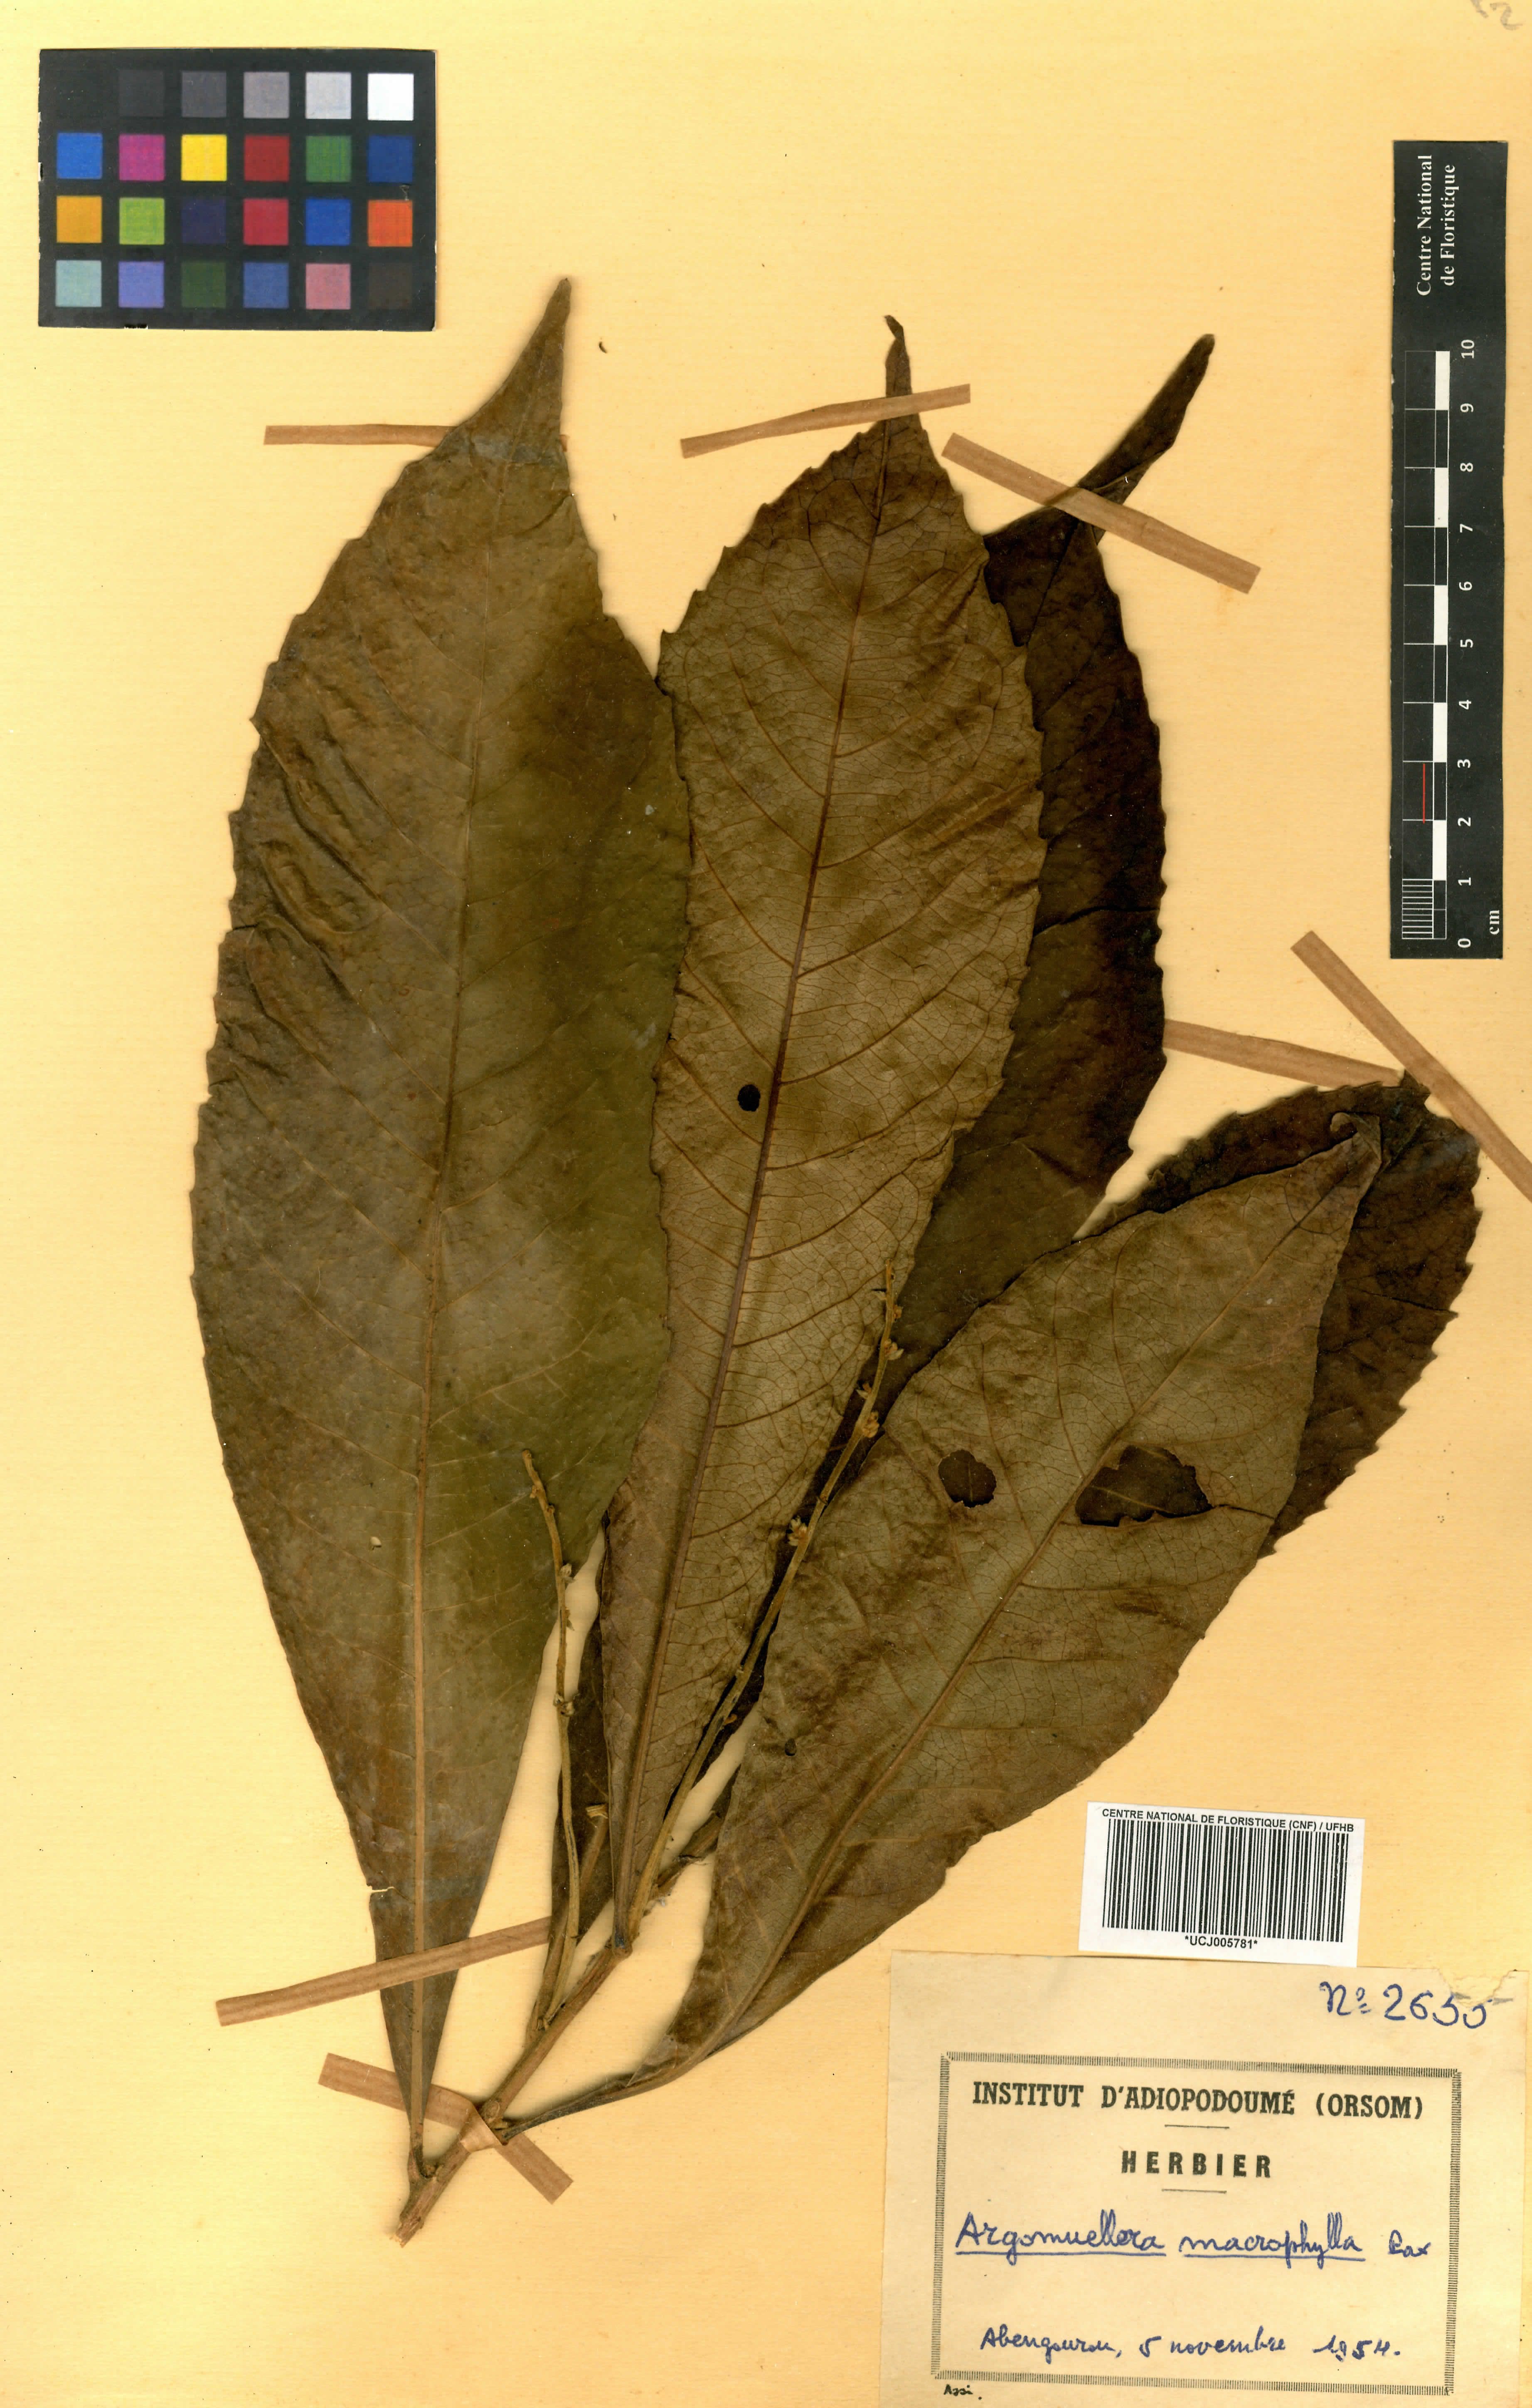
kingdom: Plantae
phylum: Tracheophyta
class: Magnoliopsida
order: Malpighiales
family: Euphorbiaceae
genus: Argomuellera
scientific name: Argomuellera macrophylla
